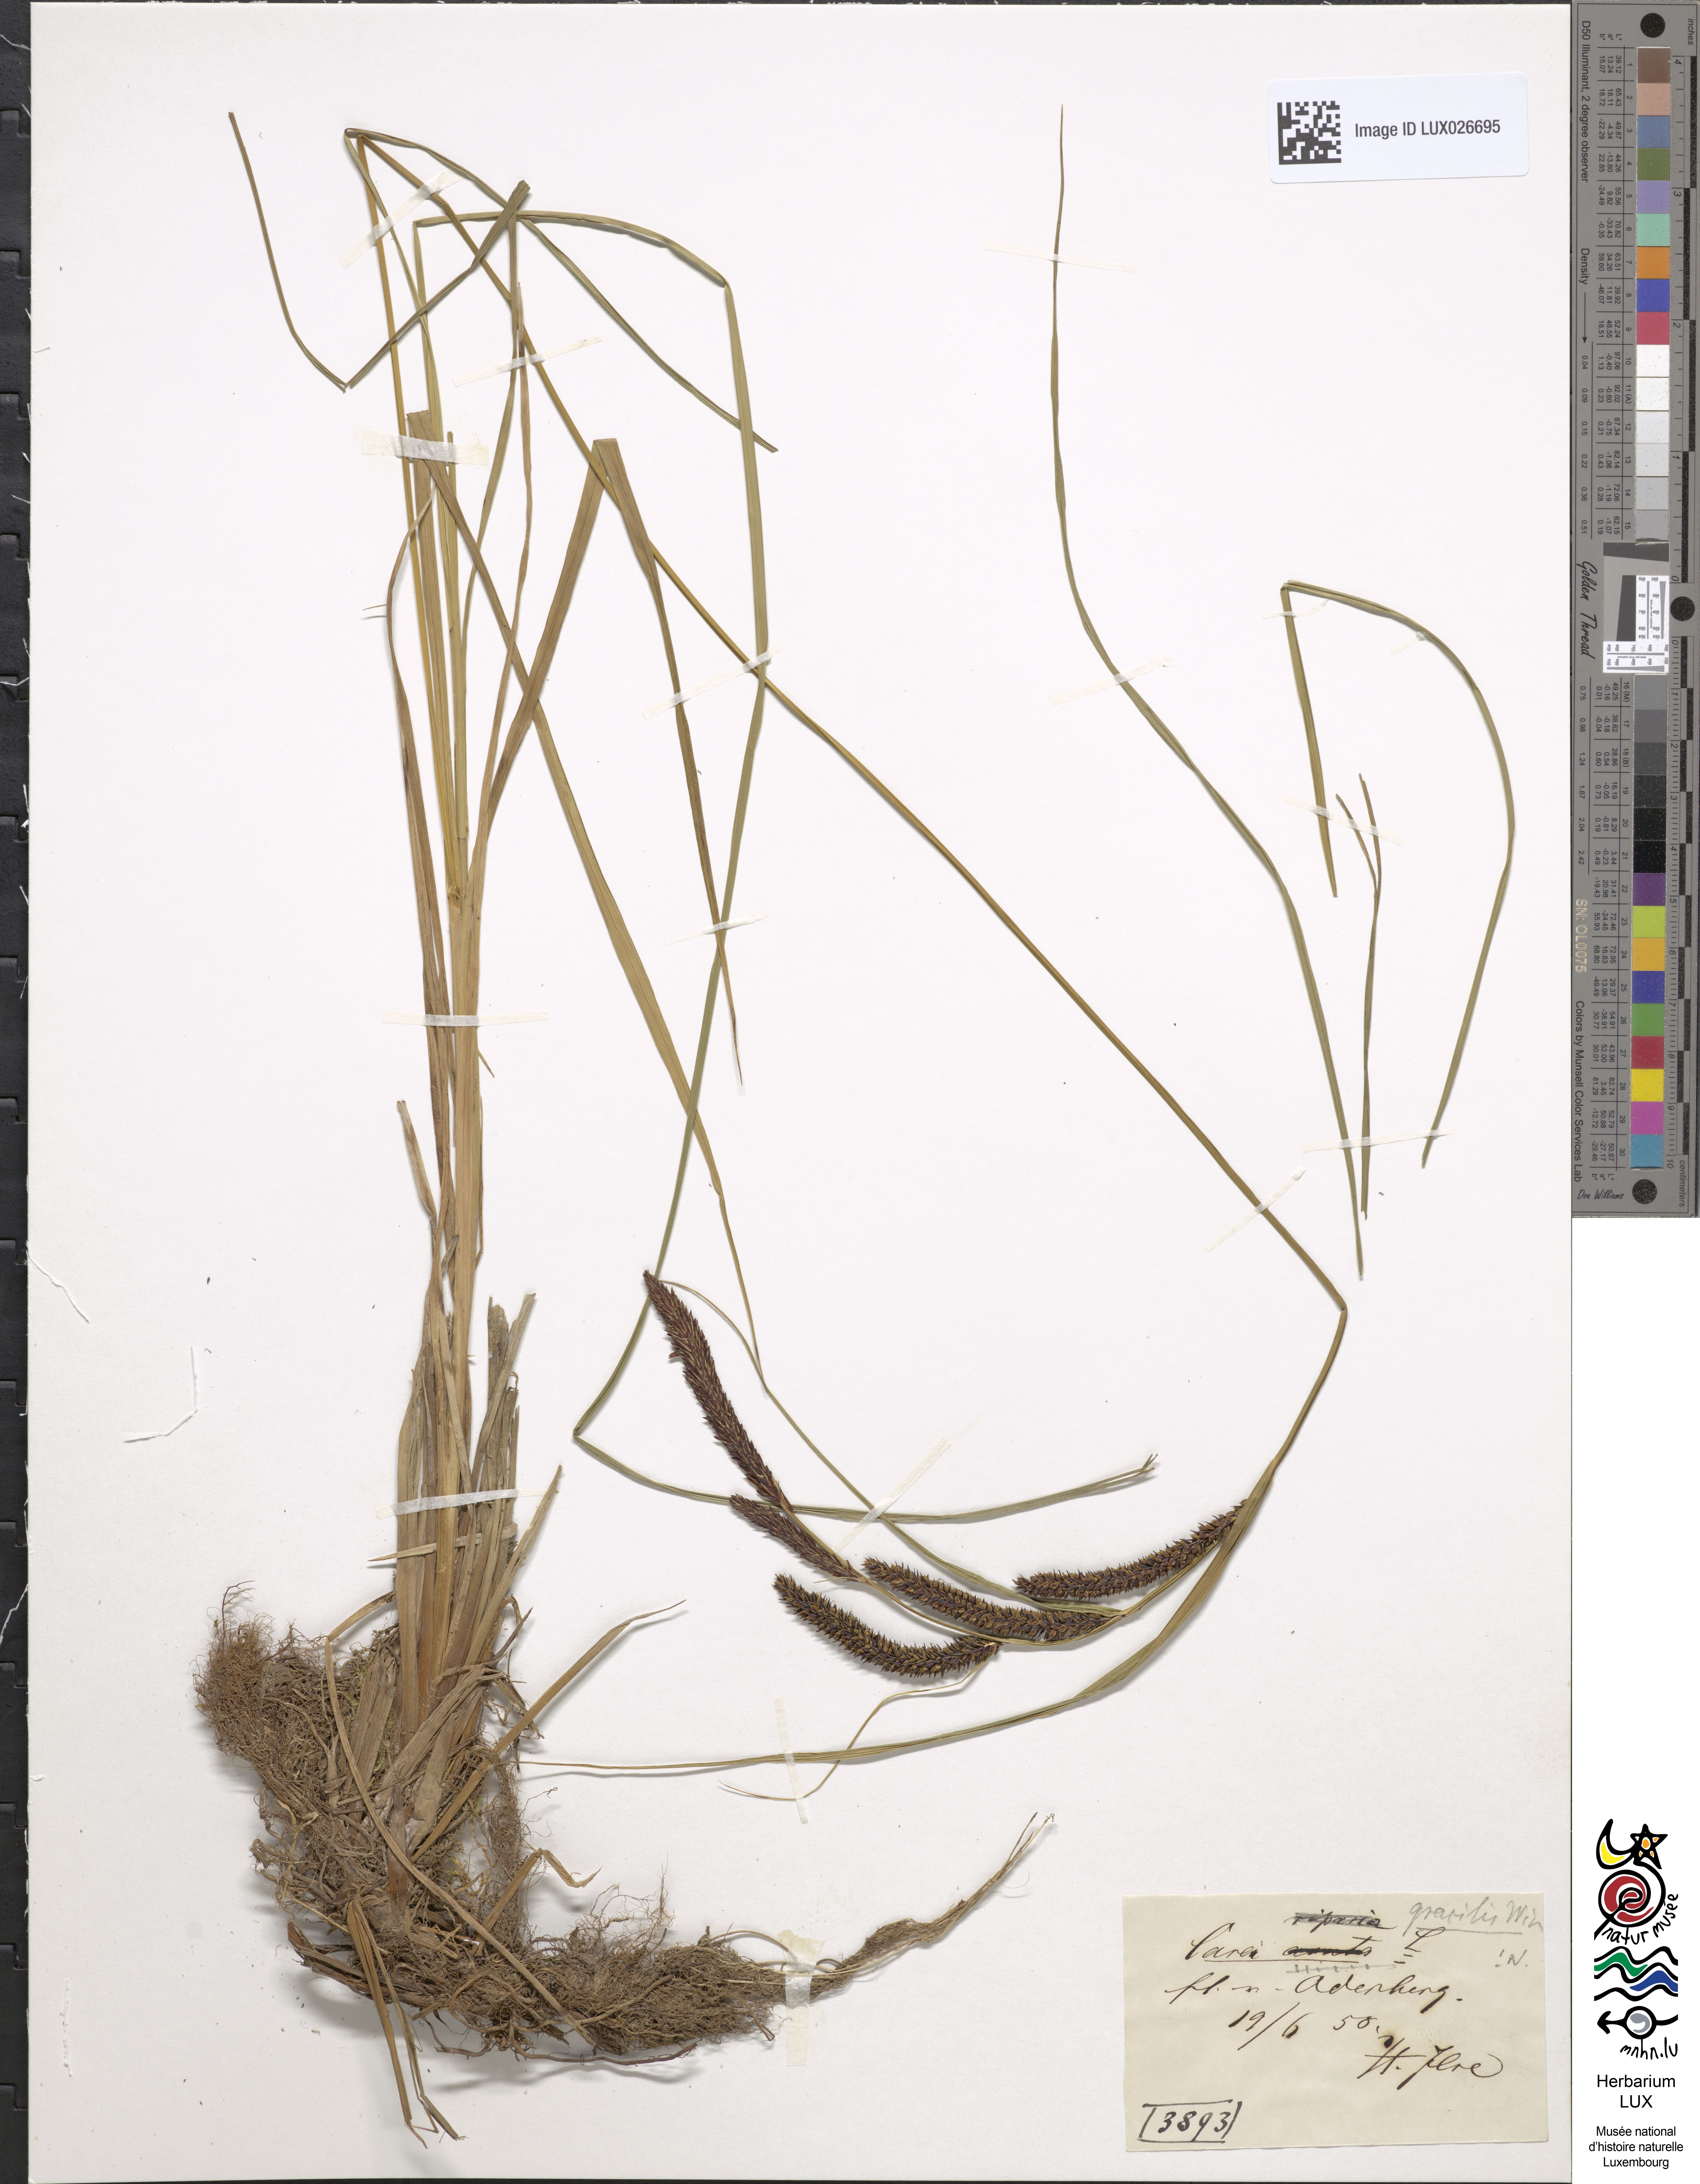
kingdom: Plantae
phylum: Tracheophyta
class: Liliopsida
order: Poales
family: Cyperaceae
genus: Carex
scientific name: Carex acuta
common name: Slender tufted-sedge
